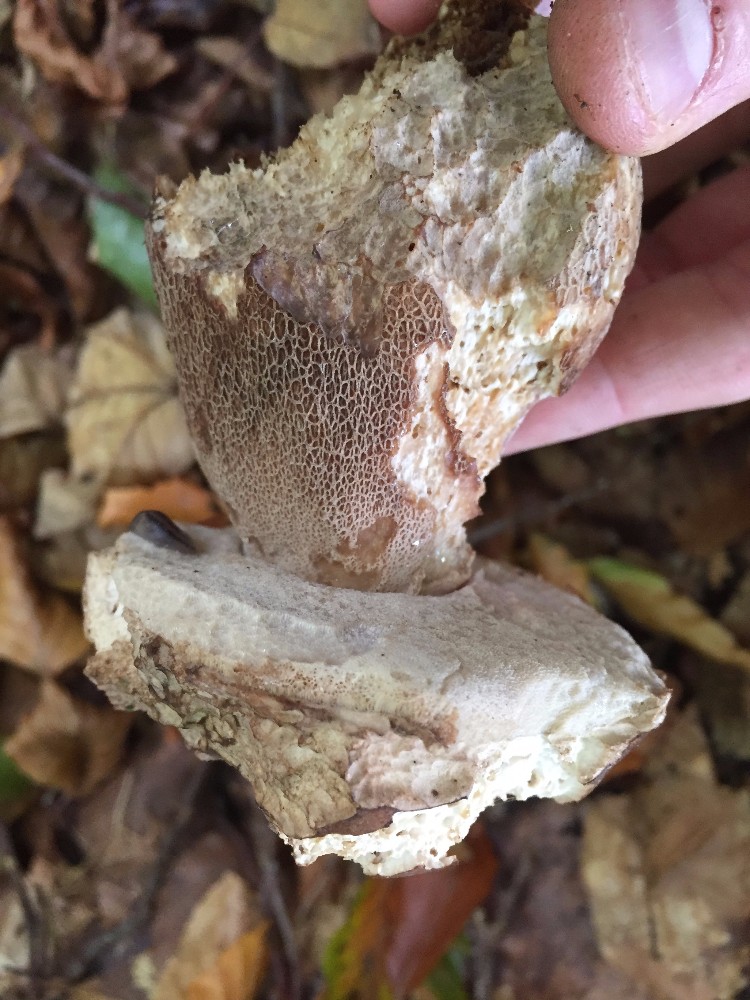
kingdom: Fungi
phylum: Basidiomycota
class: Agaricomycetes
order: Boletales
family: Boletaceae
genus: Boletus
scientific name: Boletus edulis
